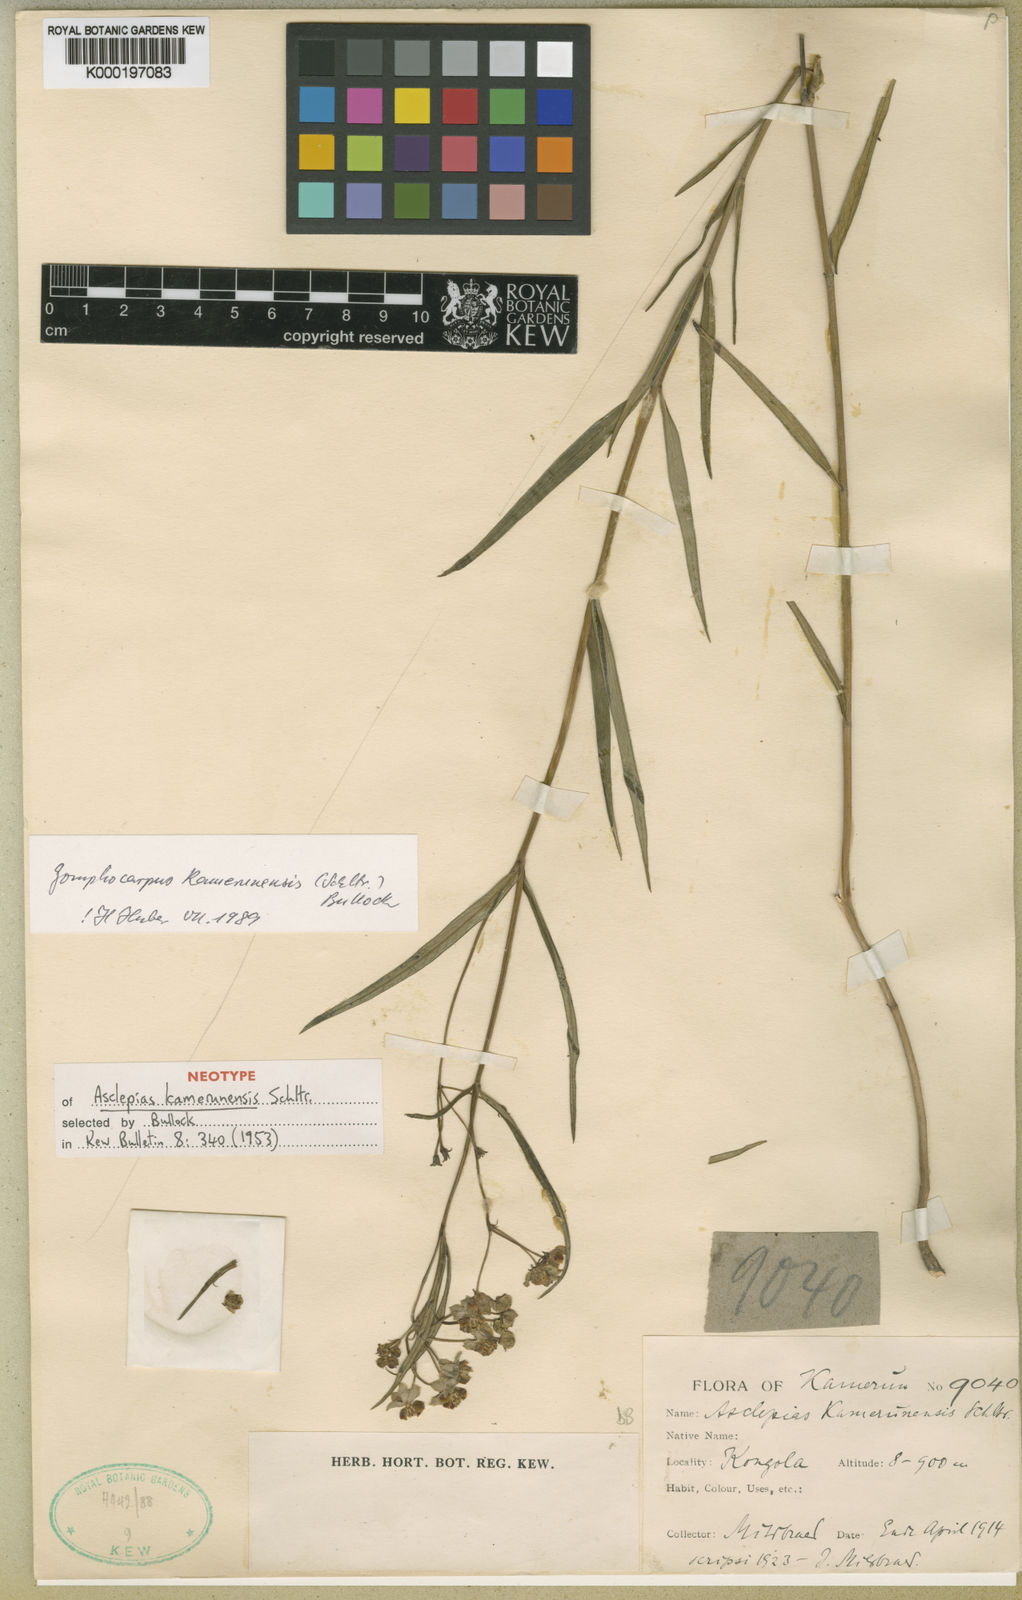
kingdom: Plantae
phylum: Tracheophyta
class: Magnoliopsida
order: Gentianales
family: Apocynaceae
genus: Asclepias
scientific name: Asclepias kamerunensis
